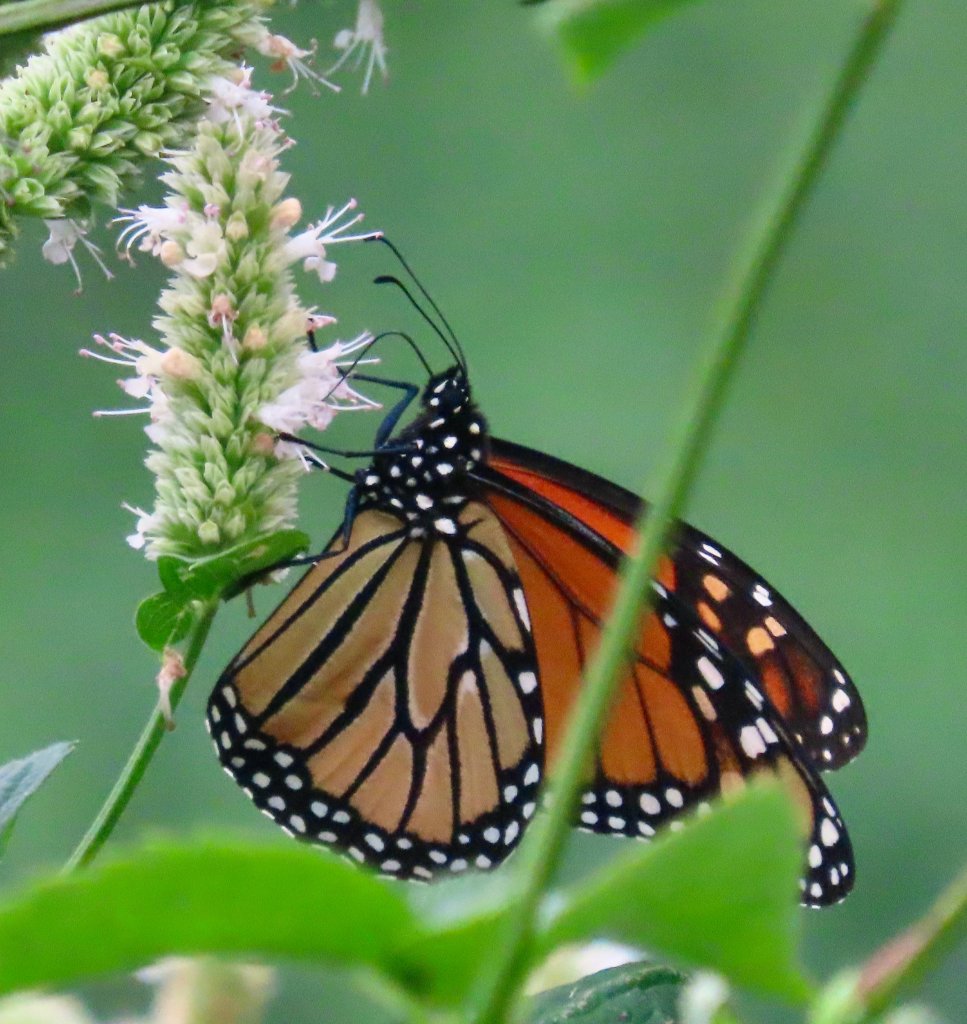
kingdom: Animalia
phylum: Arthropoda
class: Insecta
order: Lepidoptera
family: Nymphalidae
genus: Danaus
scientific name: Danaus plexippus
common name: Monarch
